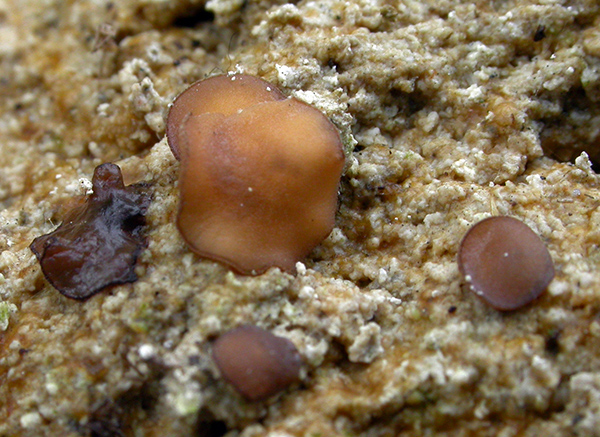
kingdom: Fungi
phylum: Ascomycota
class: Pezizomycetes
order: Pezizales
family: Pseudombrophilaceae
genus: Pseudombrophila
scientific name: Pseudombrophila porcina
